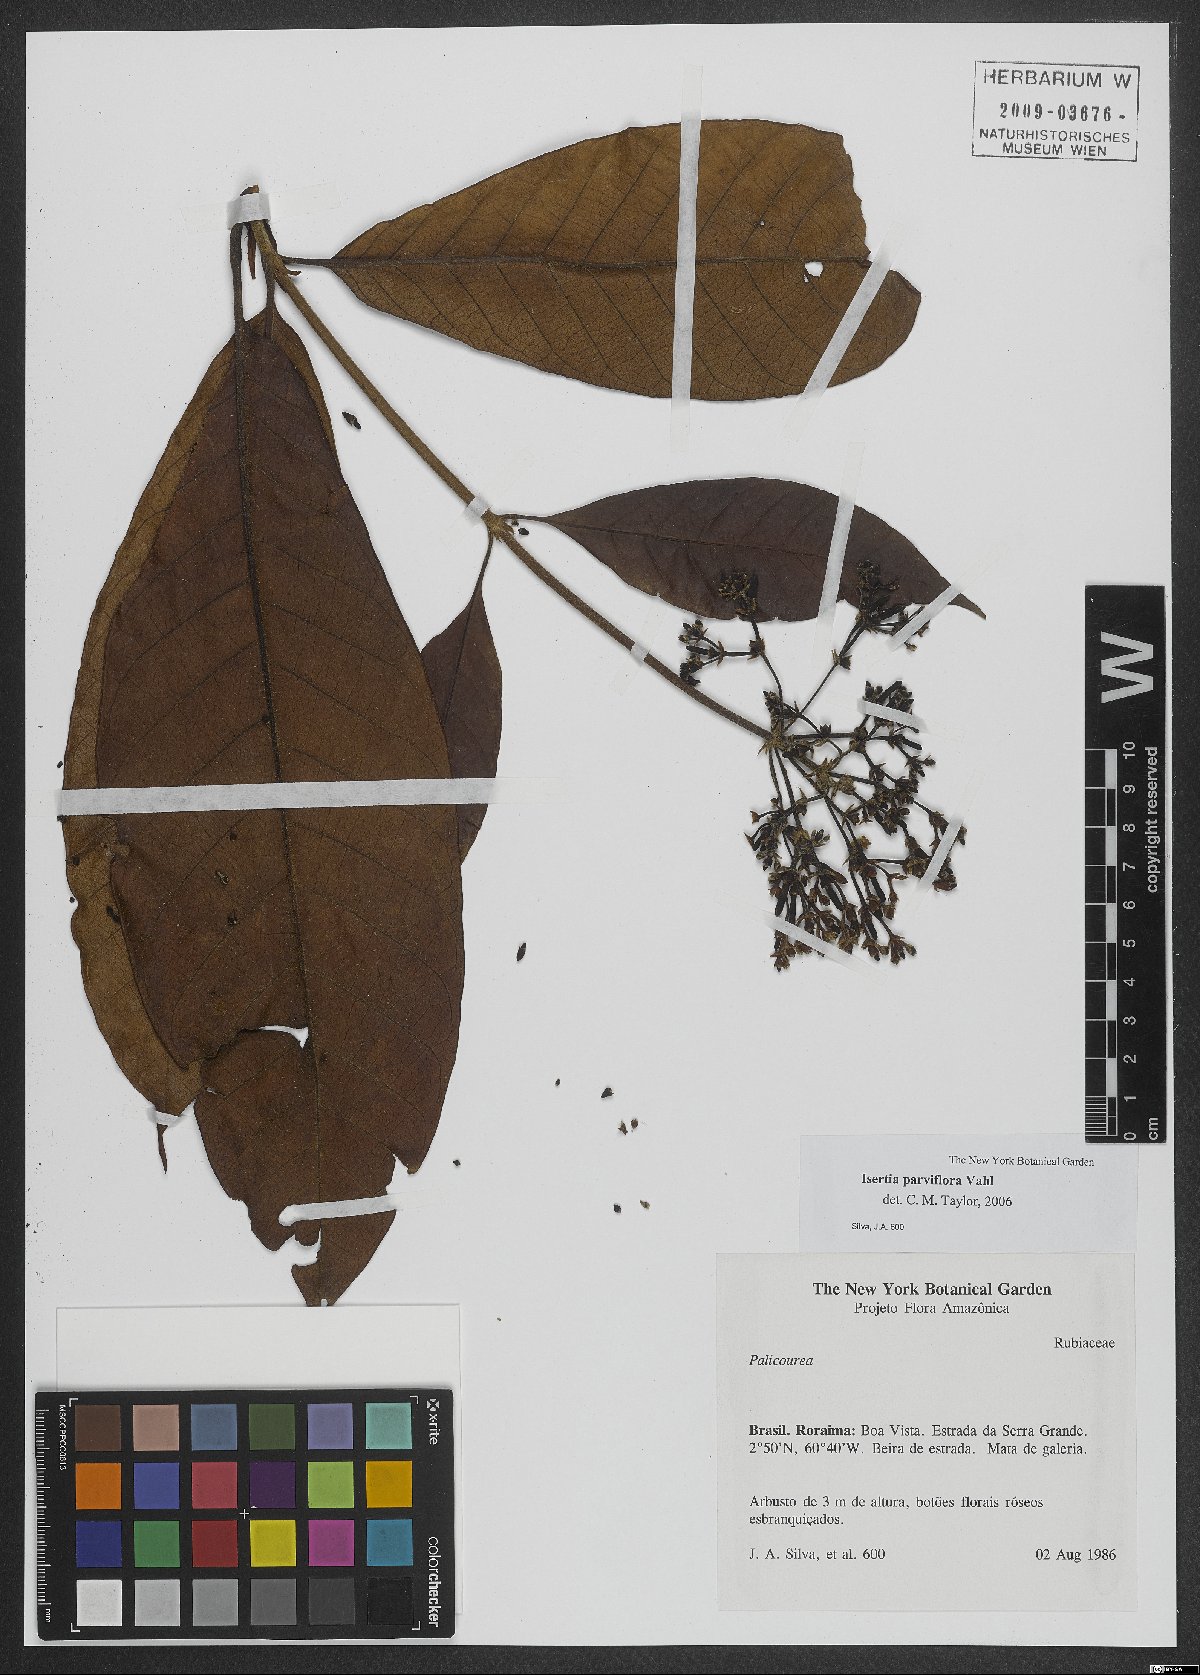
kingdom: Plantae
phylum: Tracheophyta
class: Magnoliopsida
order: Gentianales
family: Rubiaceae
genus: Isertia
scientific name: Isertia parviflora
